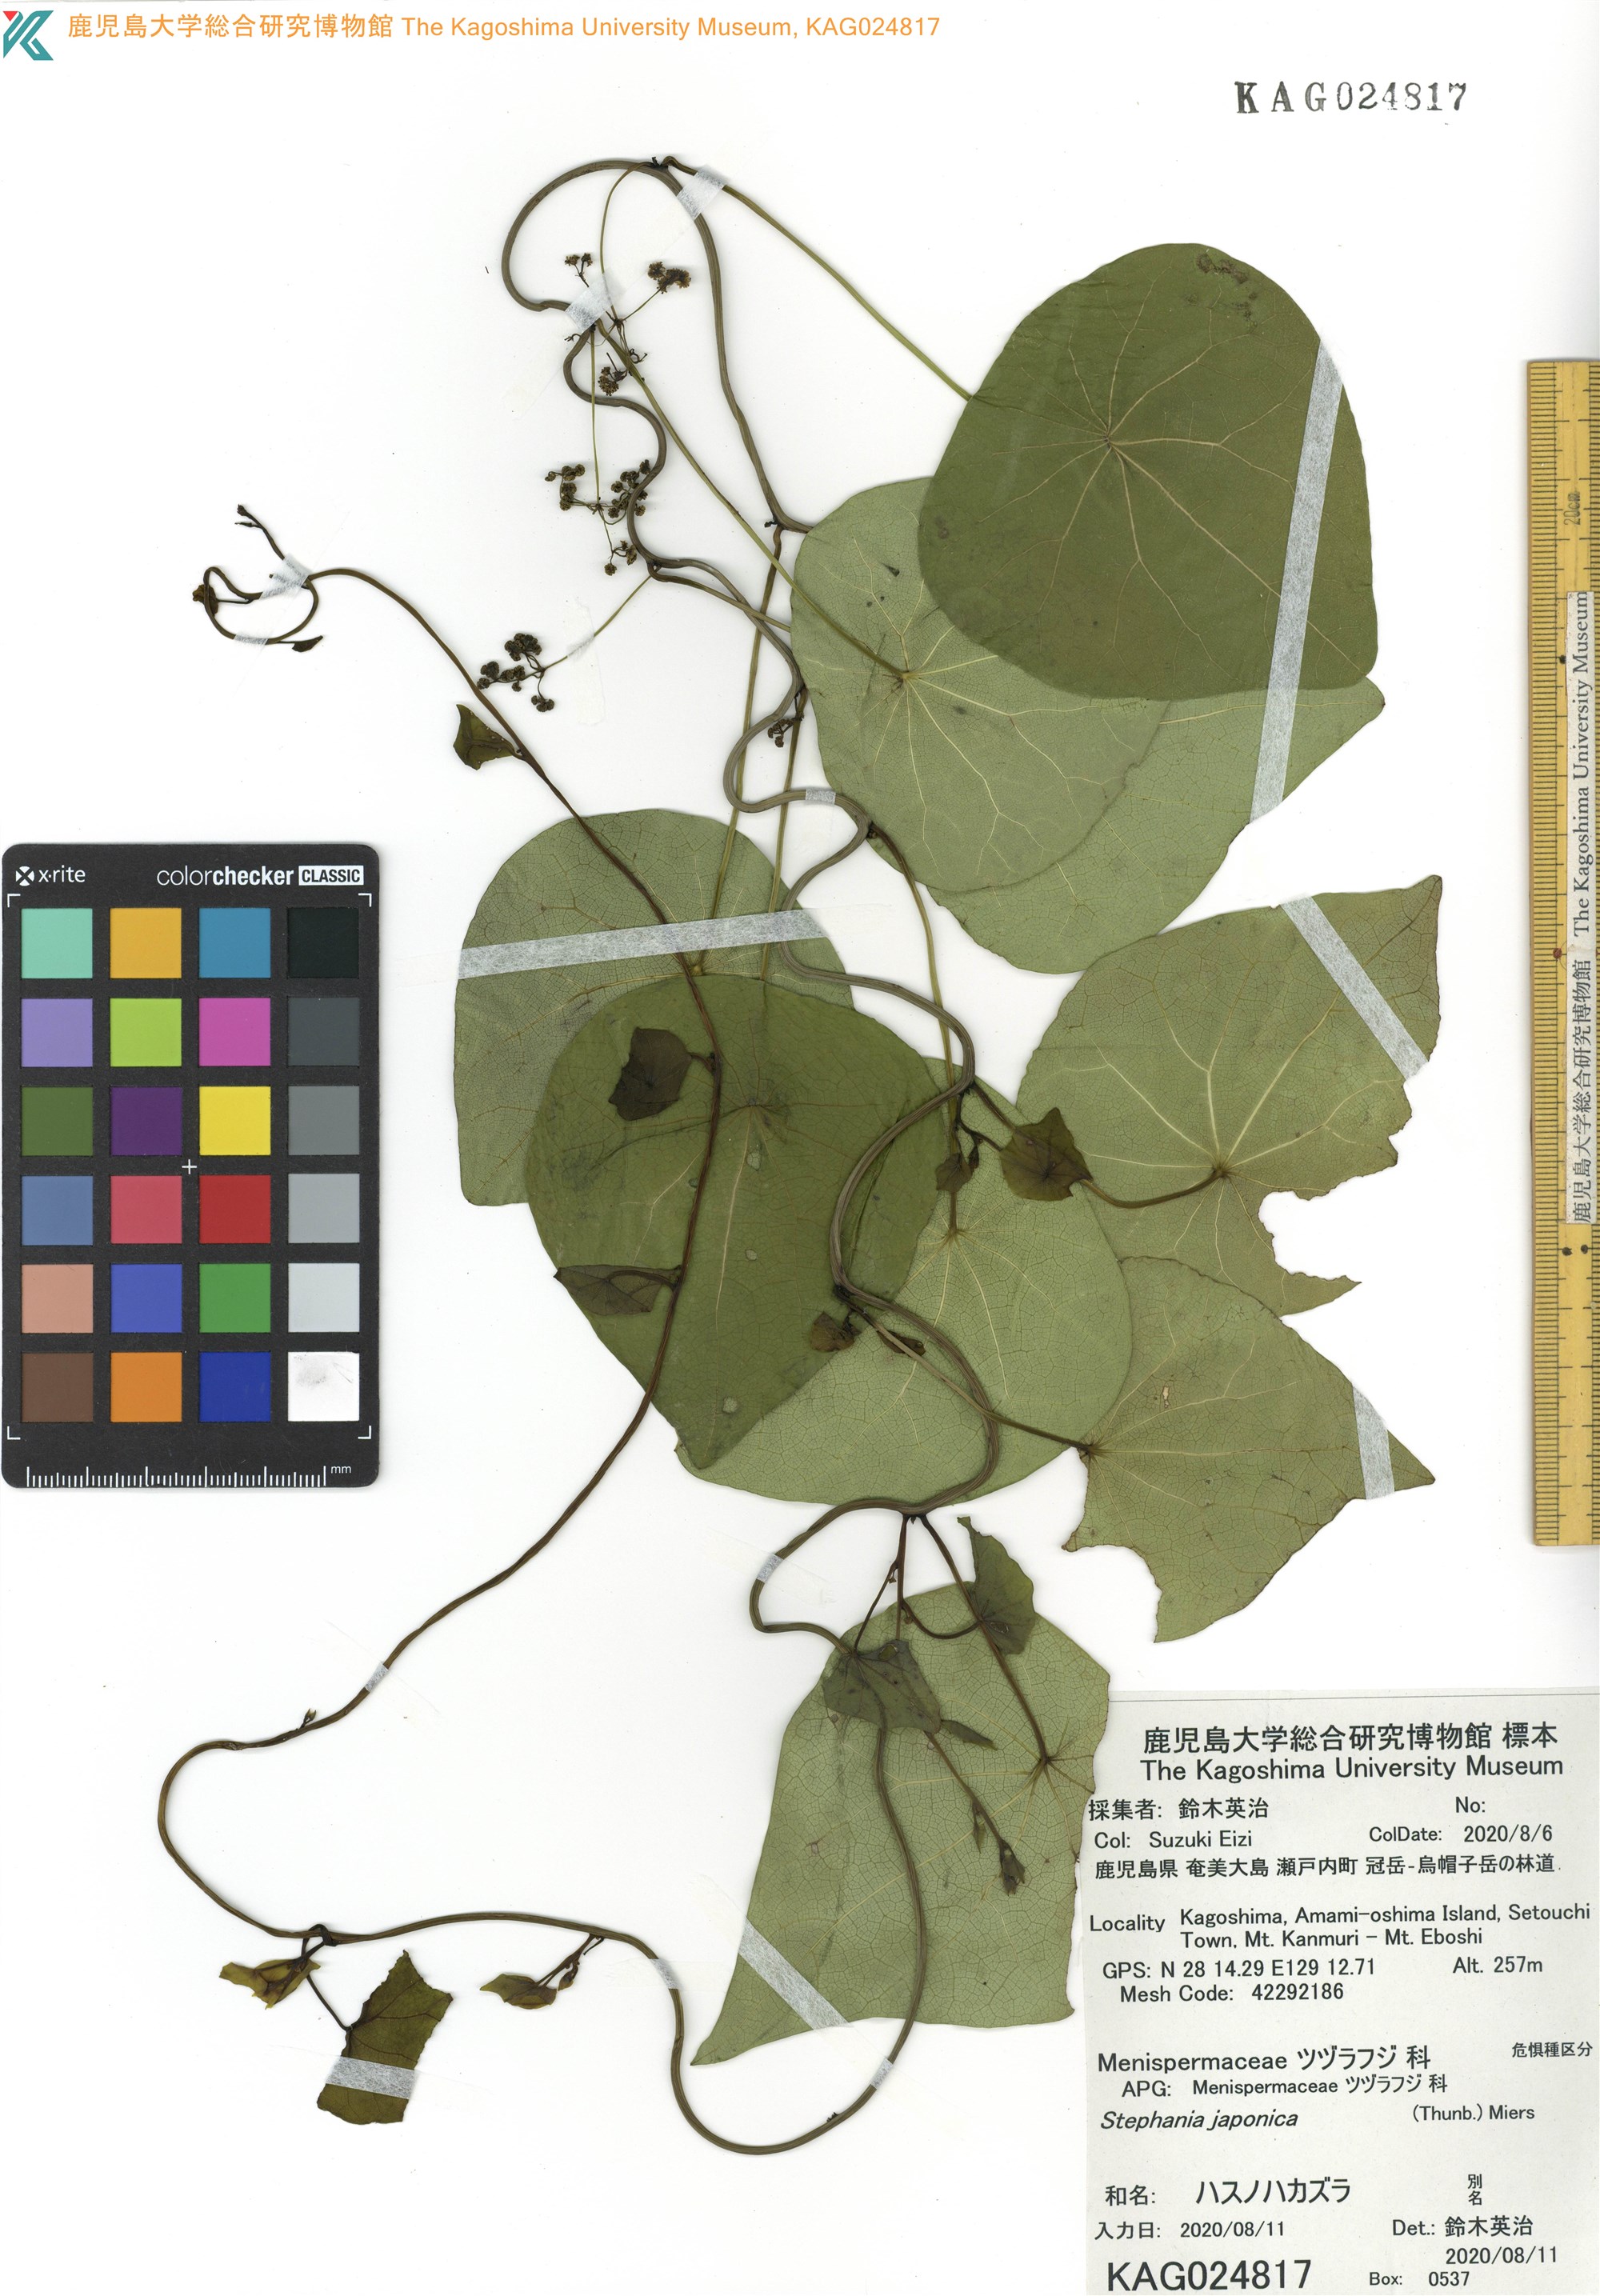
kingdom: Plantae
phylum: Tracheophyta
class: Magnoliopsida
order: Ranunculales
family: Menispermaceae
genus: Stephania
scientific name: Stephania japonica
